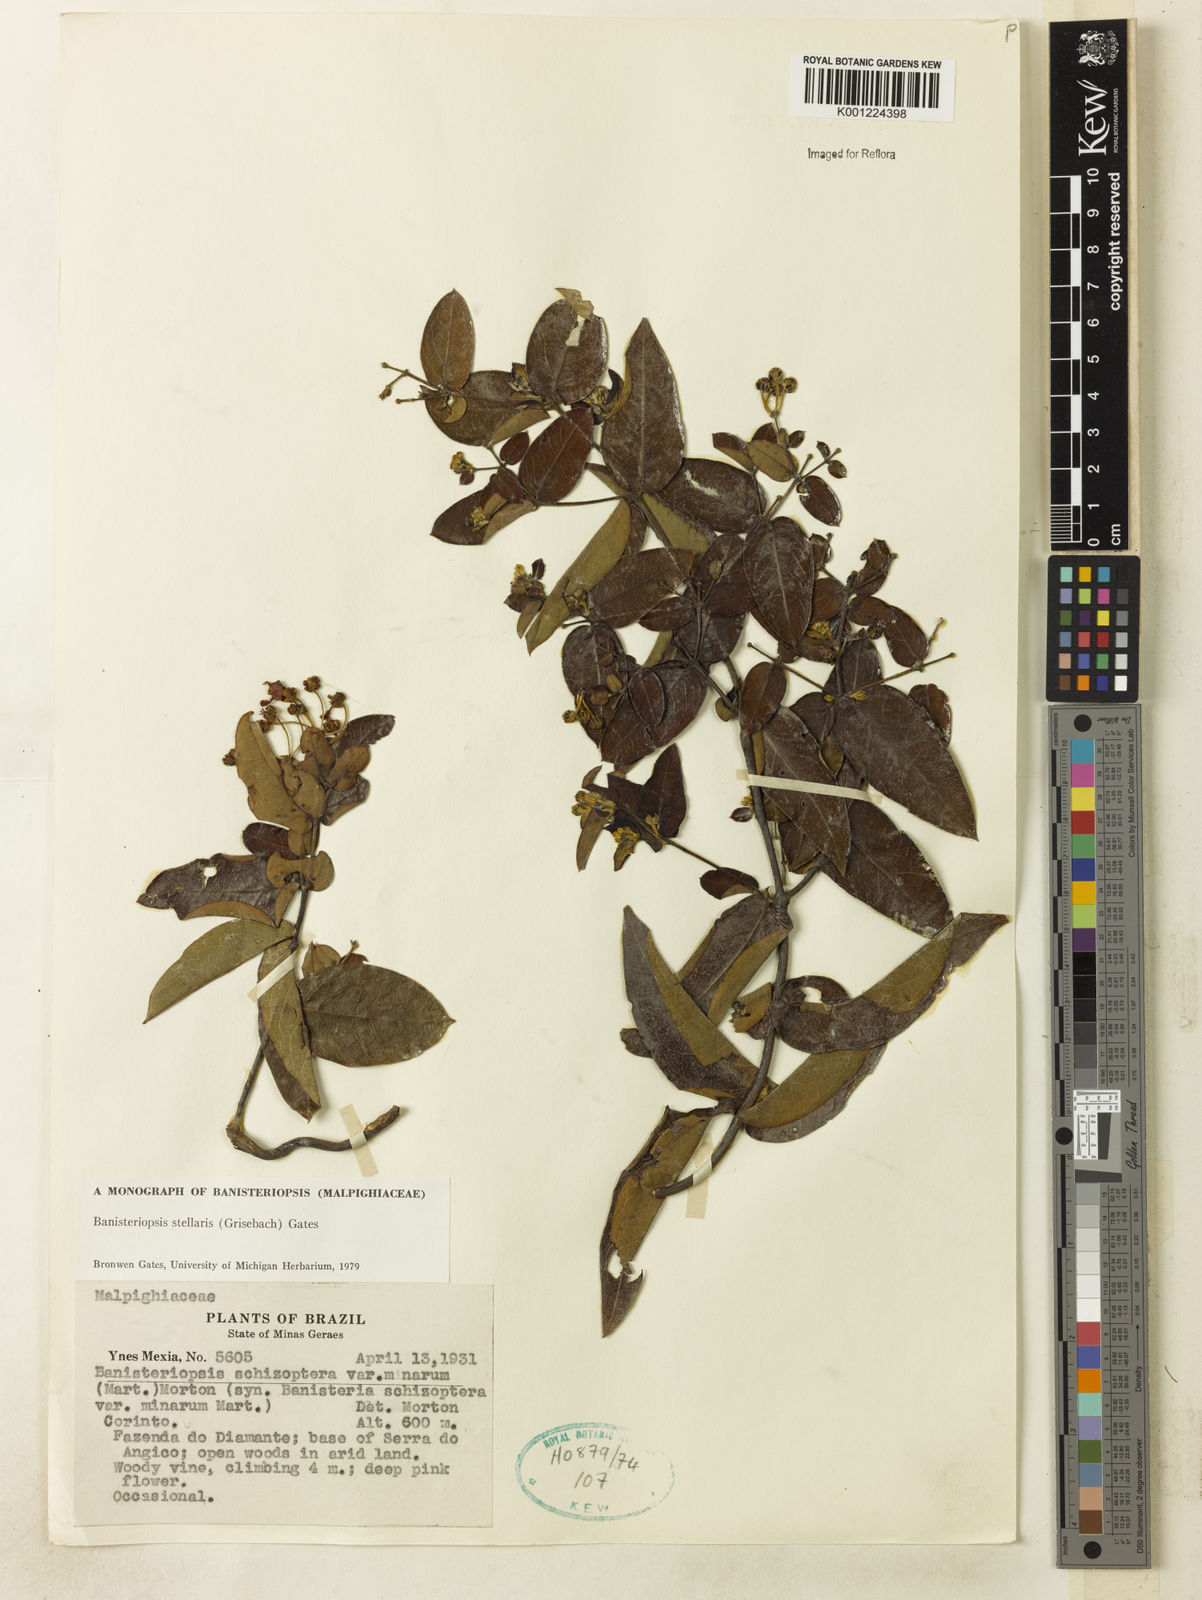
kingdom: Plantae
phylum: Tracheophyta
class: Magnoliopsida
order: Malpighiales
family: Malpighiaceae
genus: Banisteriopsis
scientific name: Banisteriopsis stellaris
